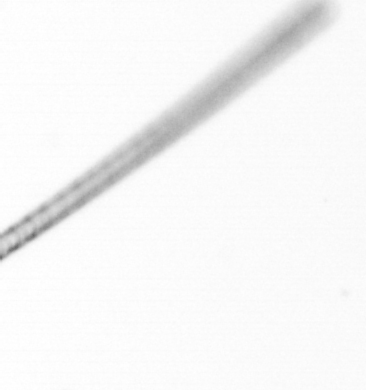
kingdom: Chromista
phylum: Ochrophyta
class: Bacillariophyceae
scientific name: Bacillariophyceae
